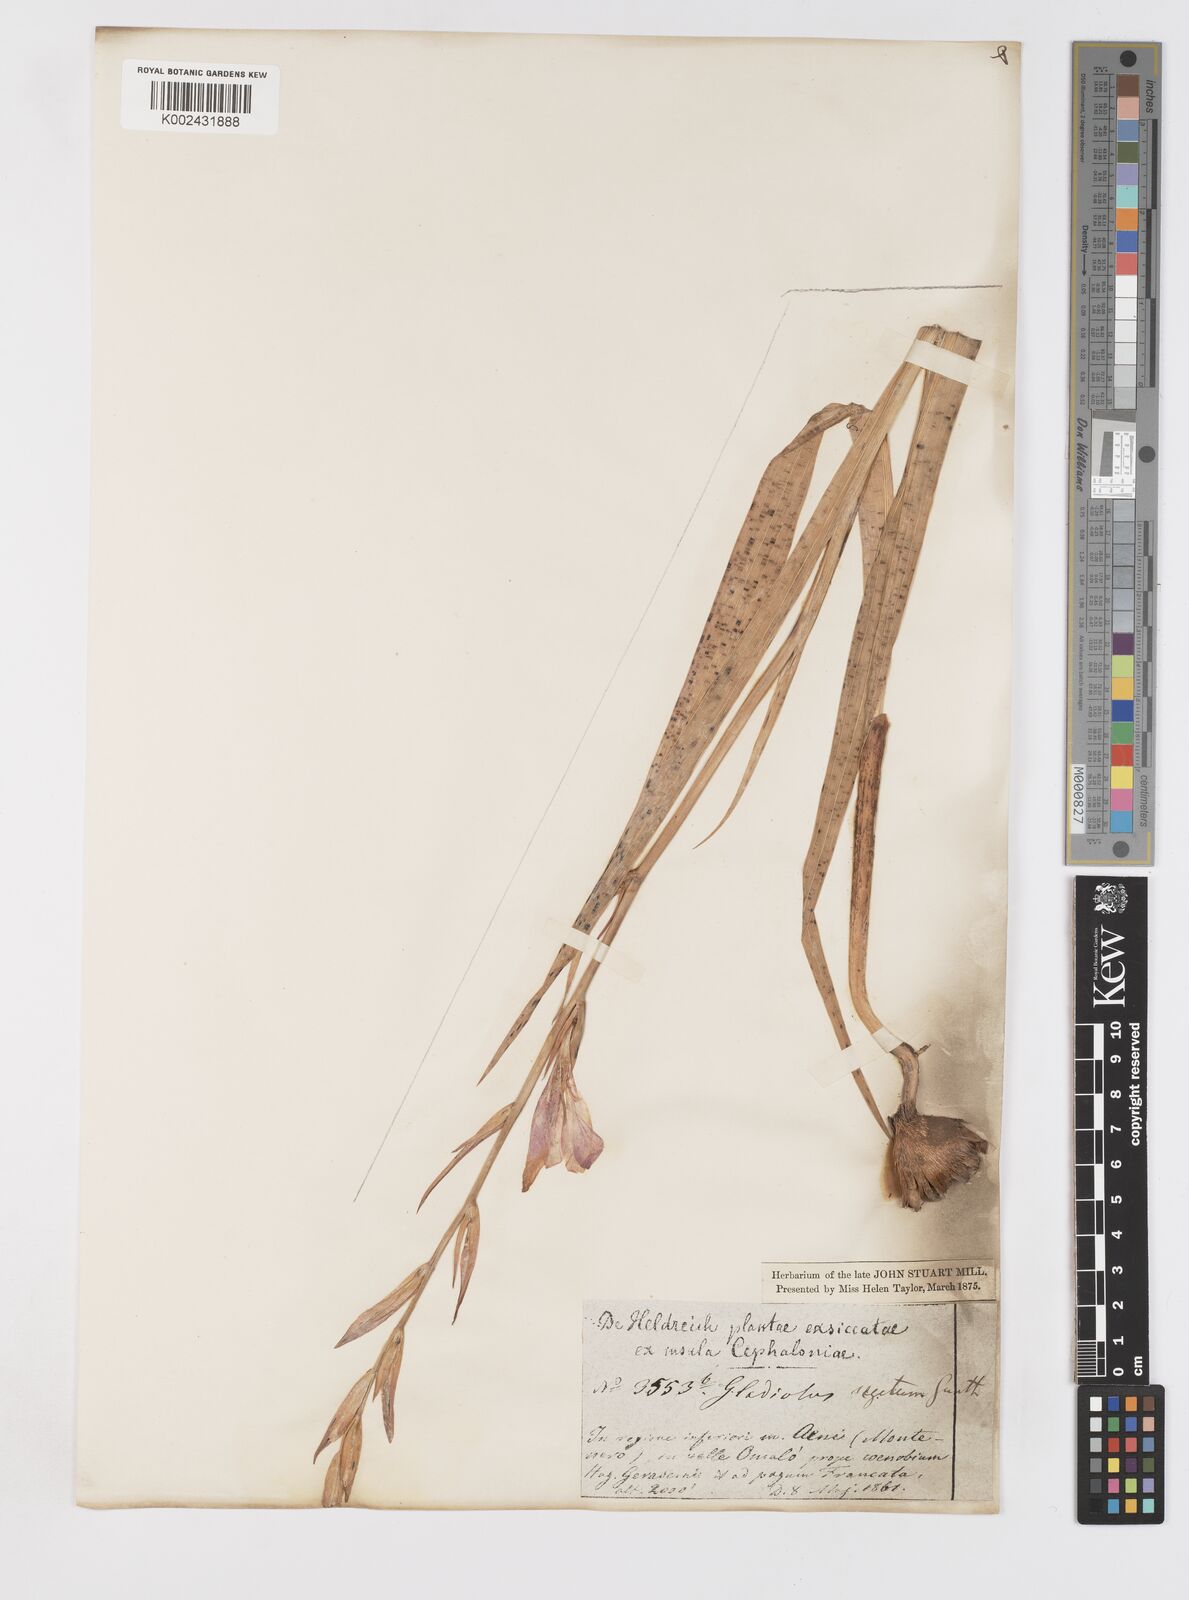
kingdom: Plantae
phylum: Tracheophyta
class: Liliopsida
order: Asparagales
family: Iridaceae
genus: Gladiolus
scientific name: Gladiolus italicus
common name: Field gladiolus
